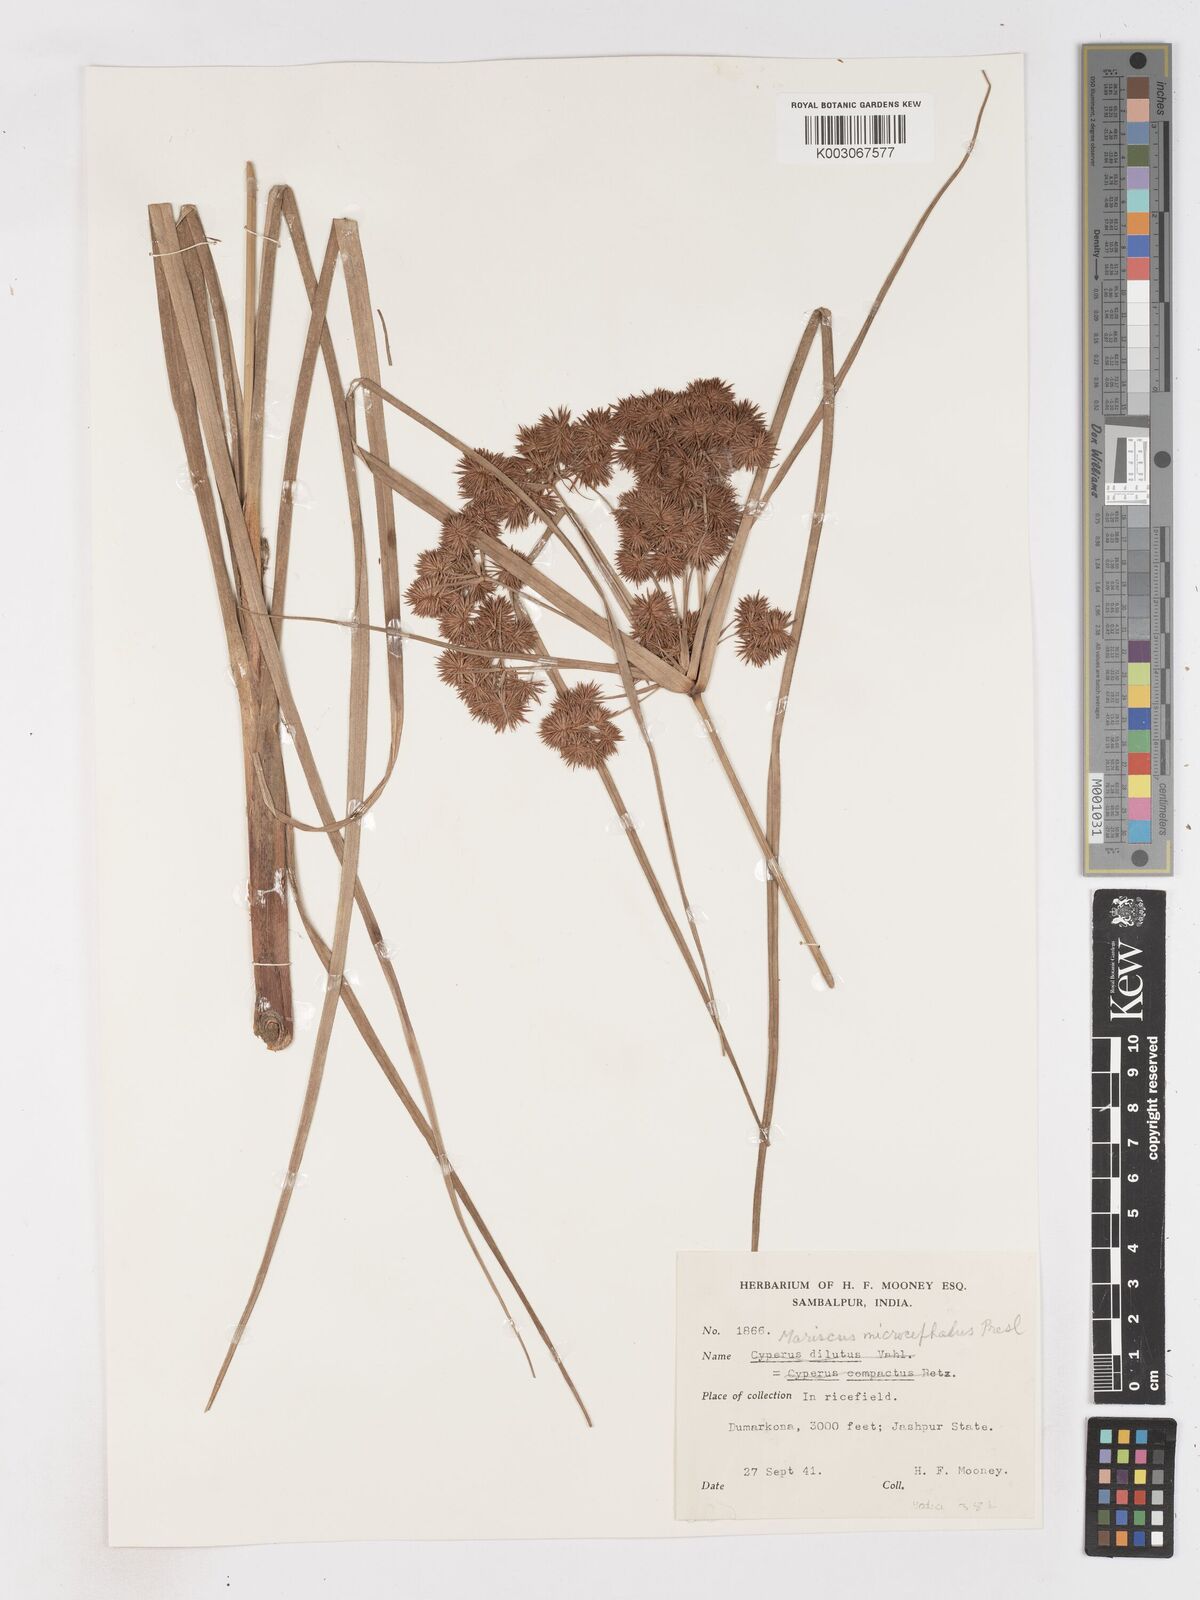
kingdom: Plantae
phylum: Tracheophyta
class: Liliopsida
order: Poales
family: Cyperaceae
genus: Cyperus
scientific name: Cyperus compactus
